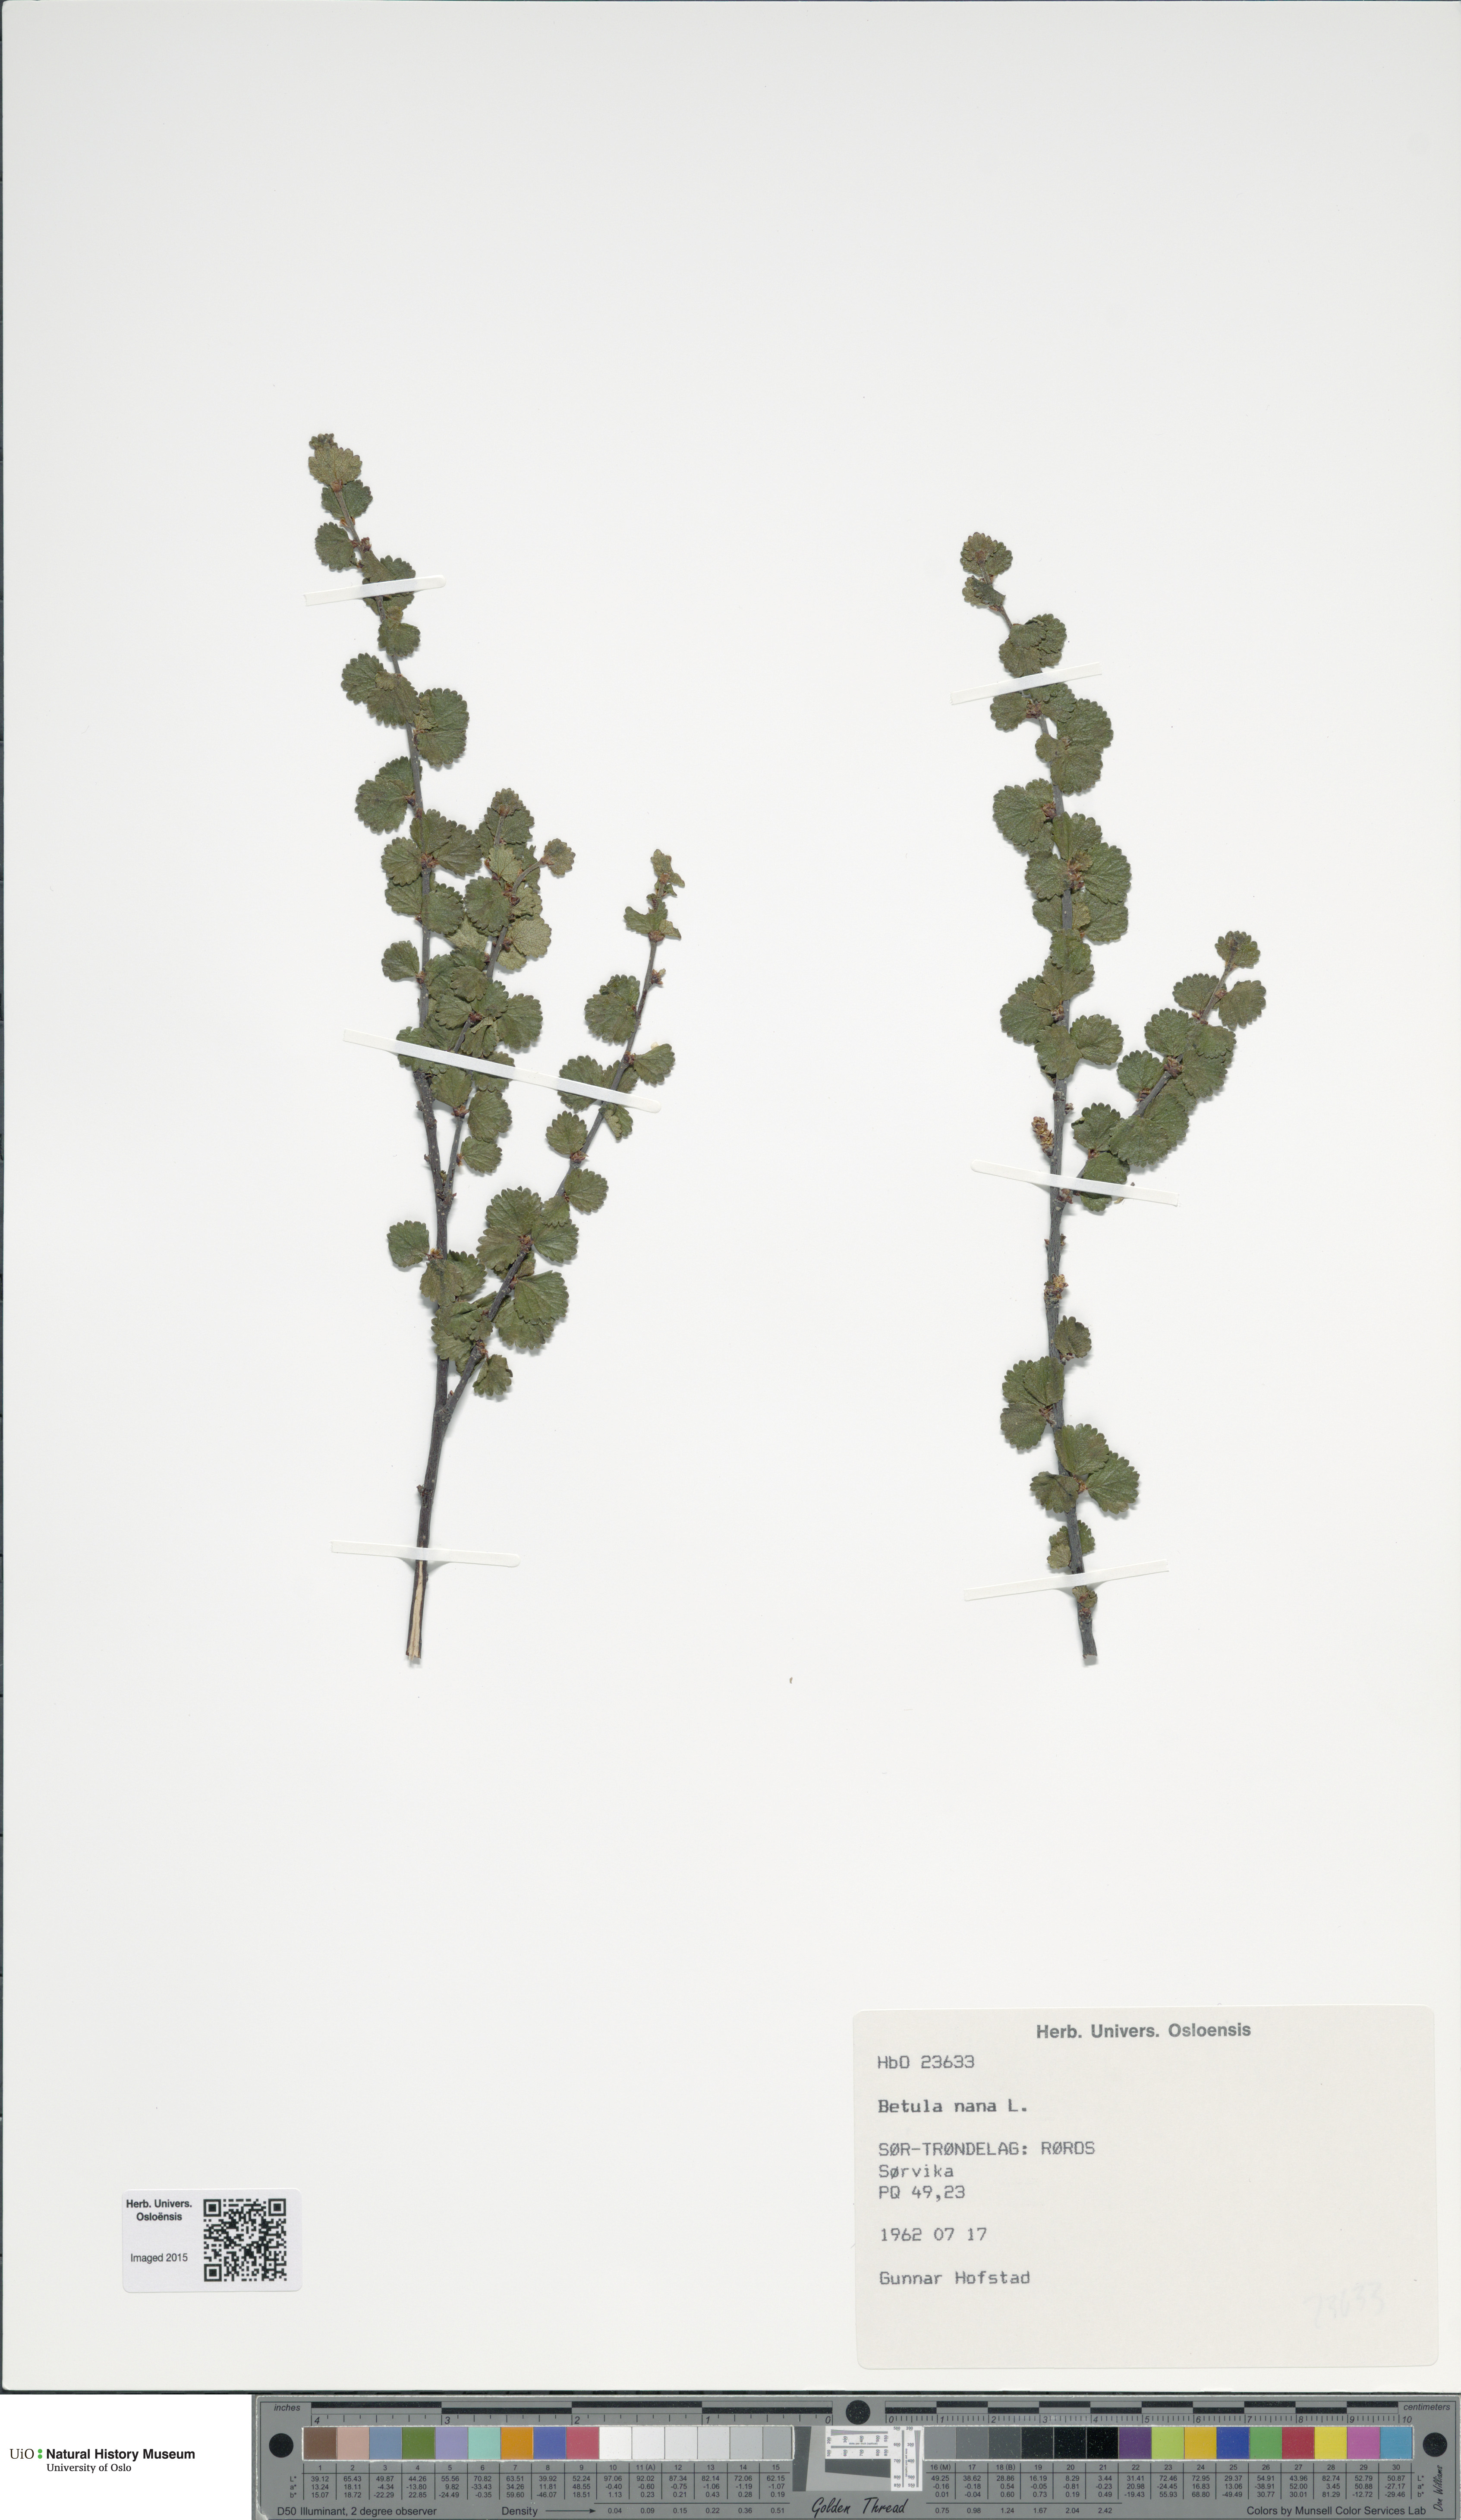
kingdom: Plantae
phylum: Tracheophyta
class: Magnoliopsida
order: Fagales
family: Betulaceae
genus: Betula
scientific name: Betula nana
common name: Arctic dwarf birch
